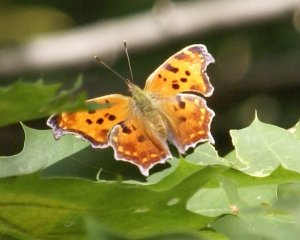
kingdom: Animalia
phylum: Arthropoda
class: Insecta
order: Lepidoptera
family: Nymphalidae
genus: Polygonia
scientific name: Polygonia comma
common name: Eastern Comma
